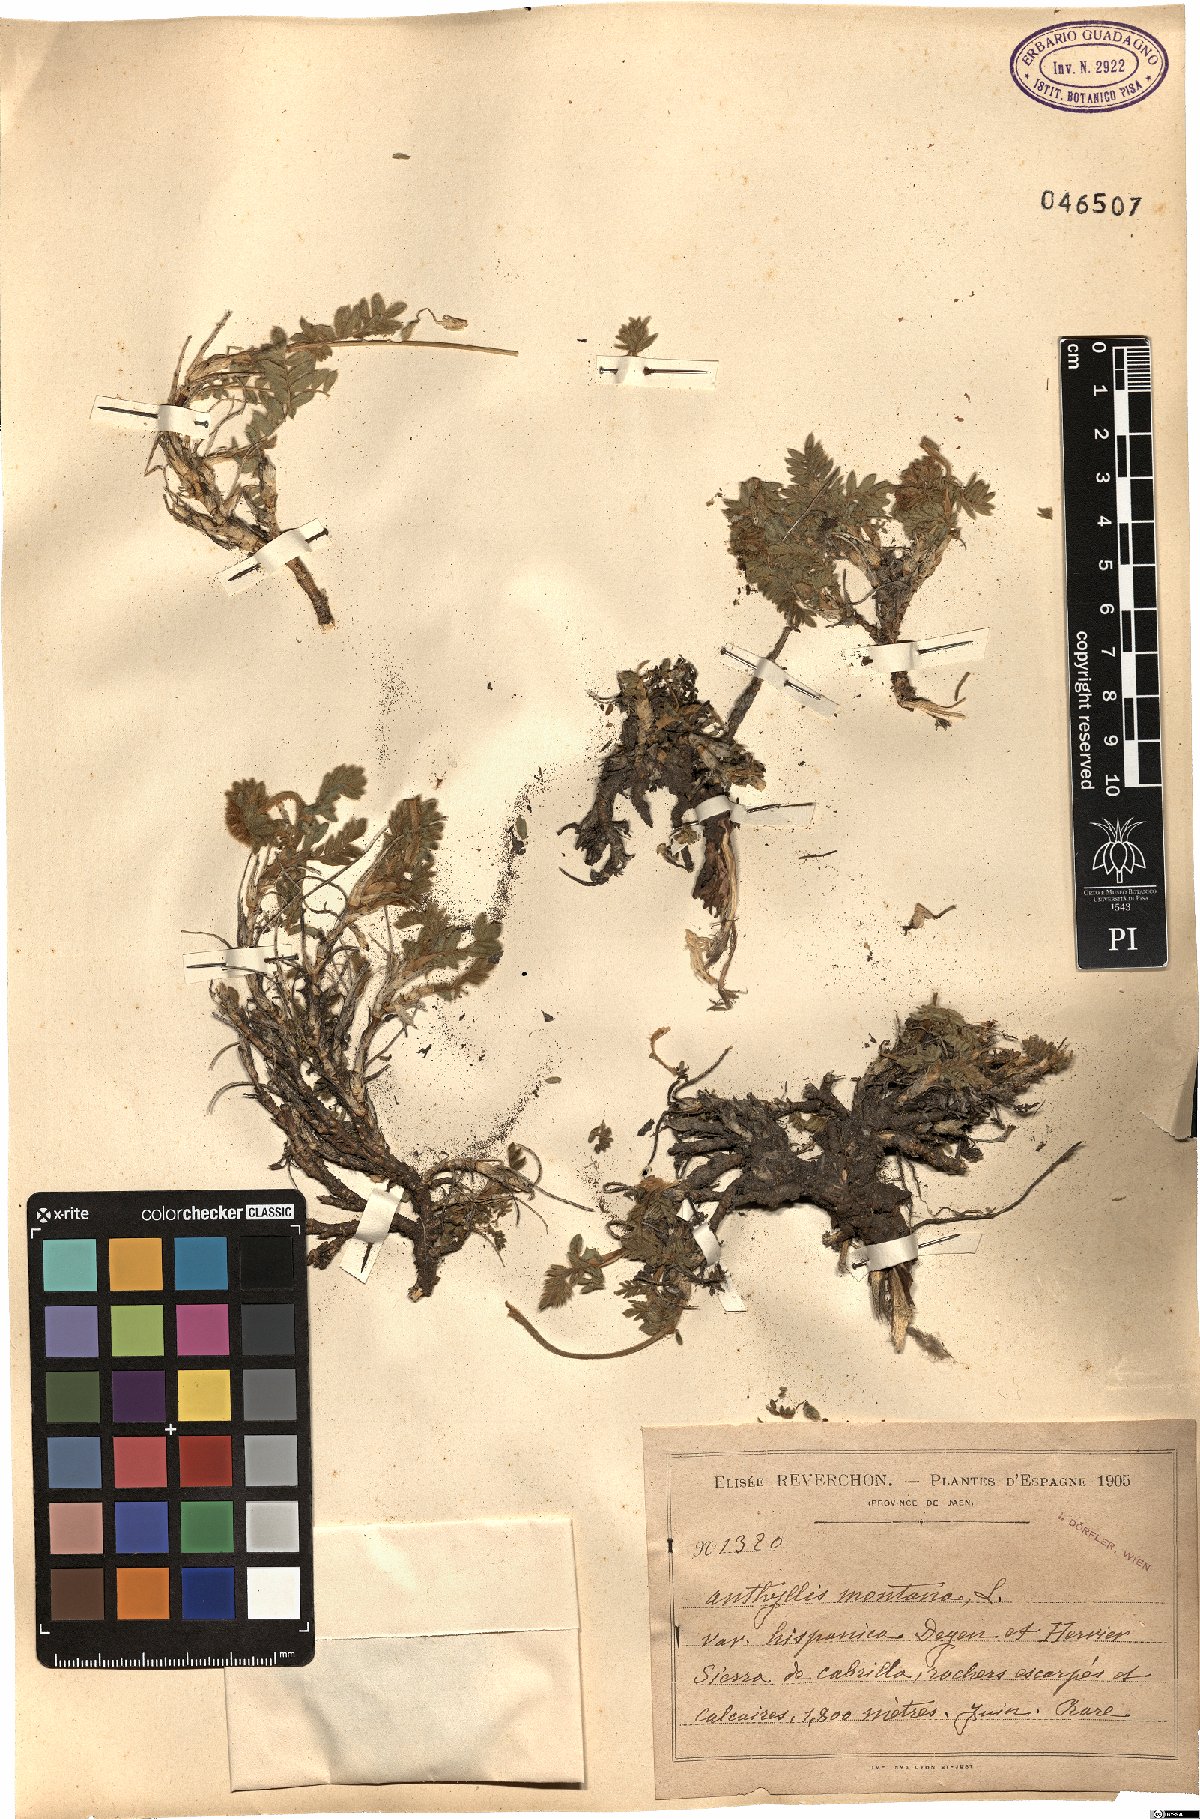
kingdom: Plantae
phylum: Tracheophyta
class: Magnoliopsida
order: Fabales
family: Fabaceae
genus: Anthyllis
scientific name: Anthyllis montana
